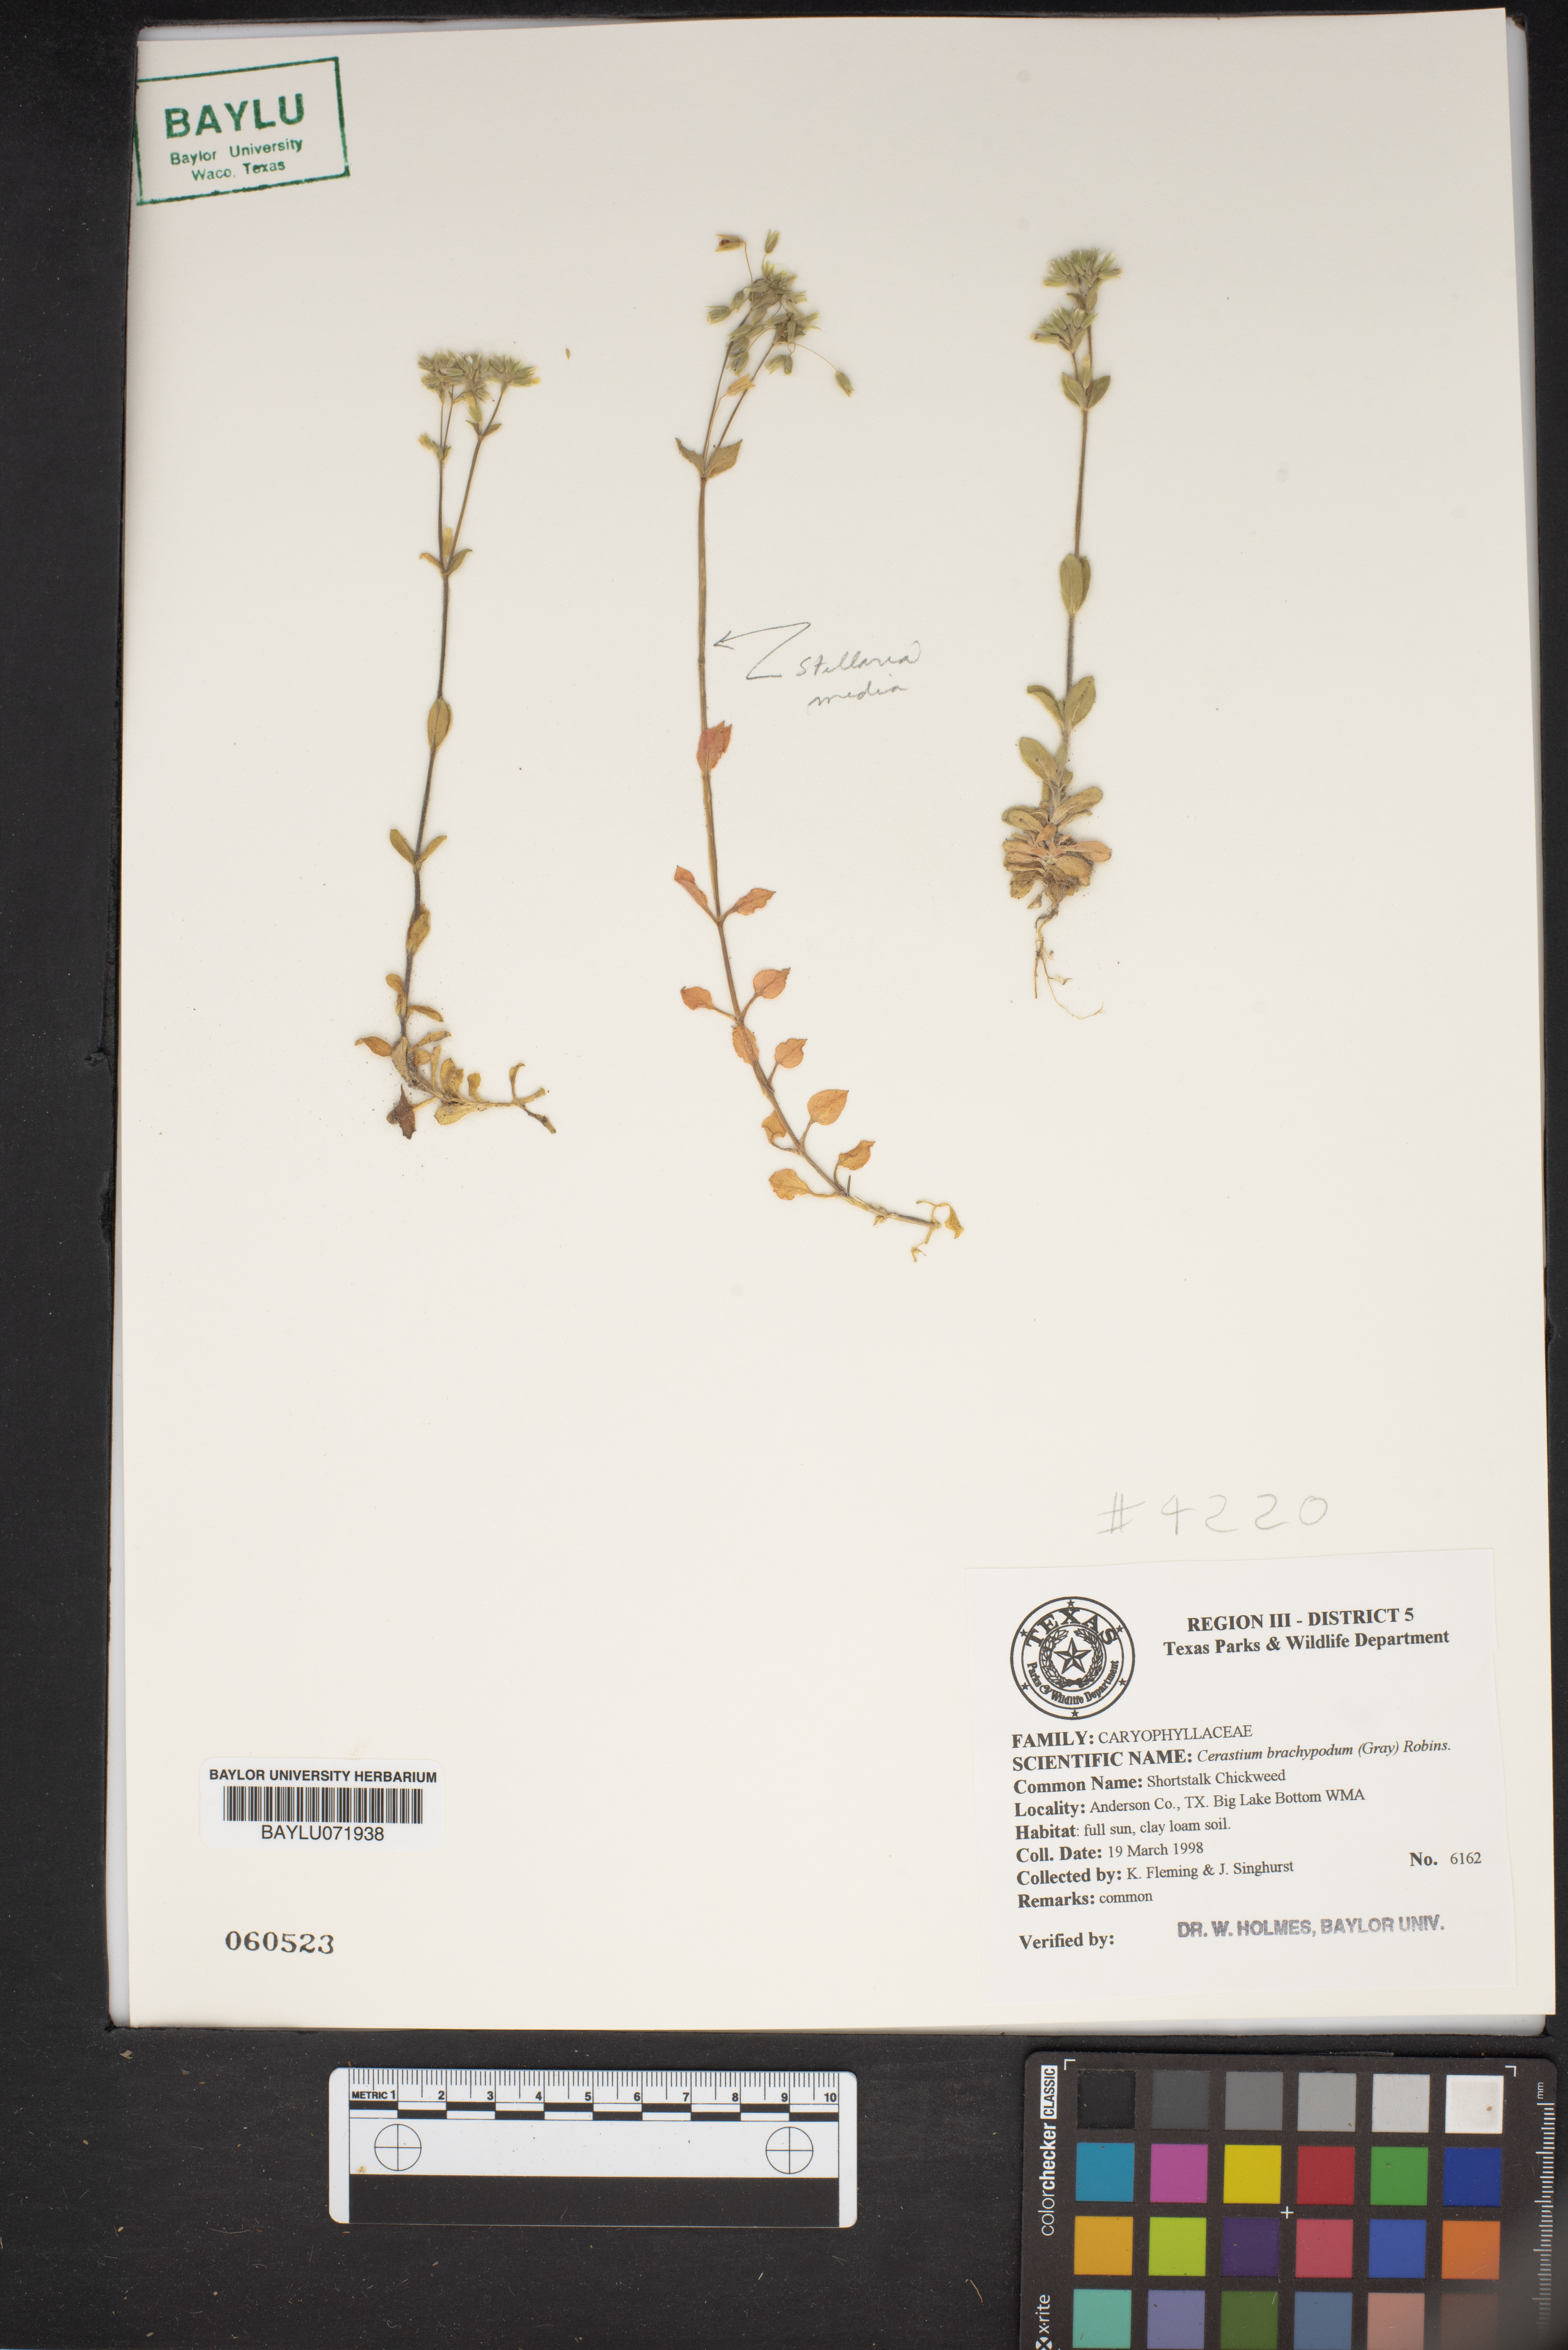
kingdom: Plantae
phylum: Tracheophyta
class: Magnoliopsida
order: Caryophyllales
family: Caryophyllaceae
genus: Cerastium
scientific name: Cerastium brachypodum
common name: Short-pedicelled nodding chickweed
